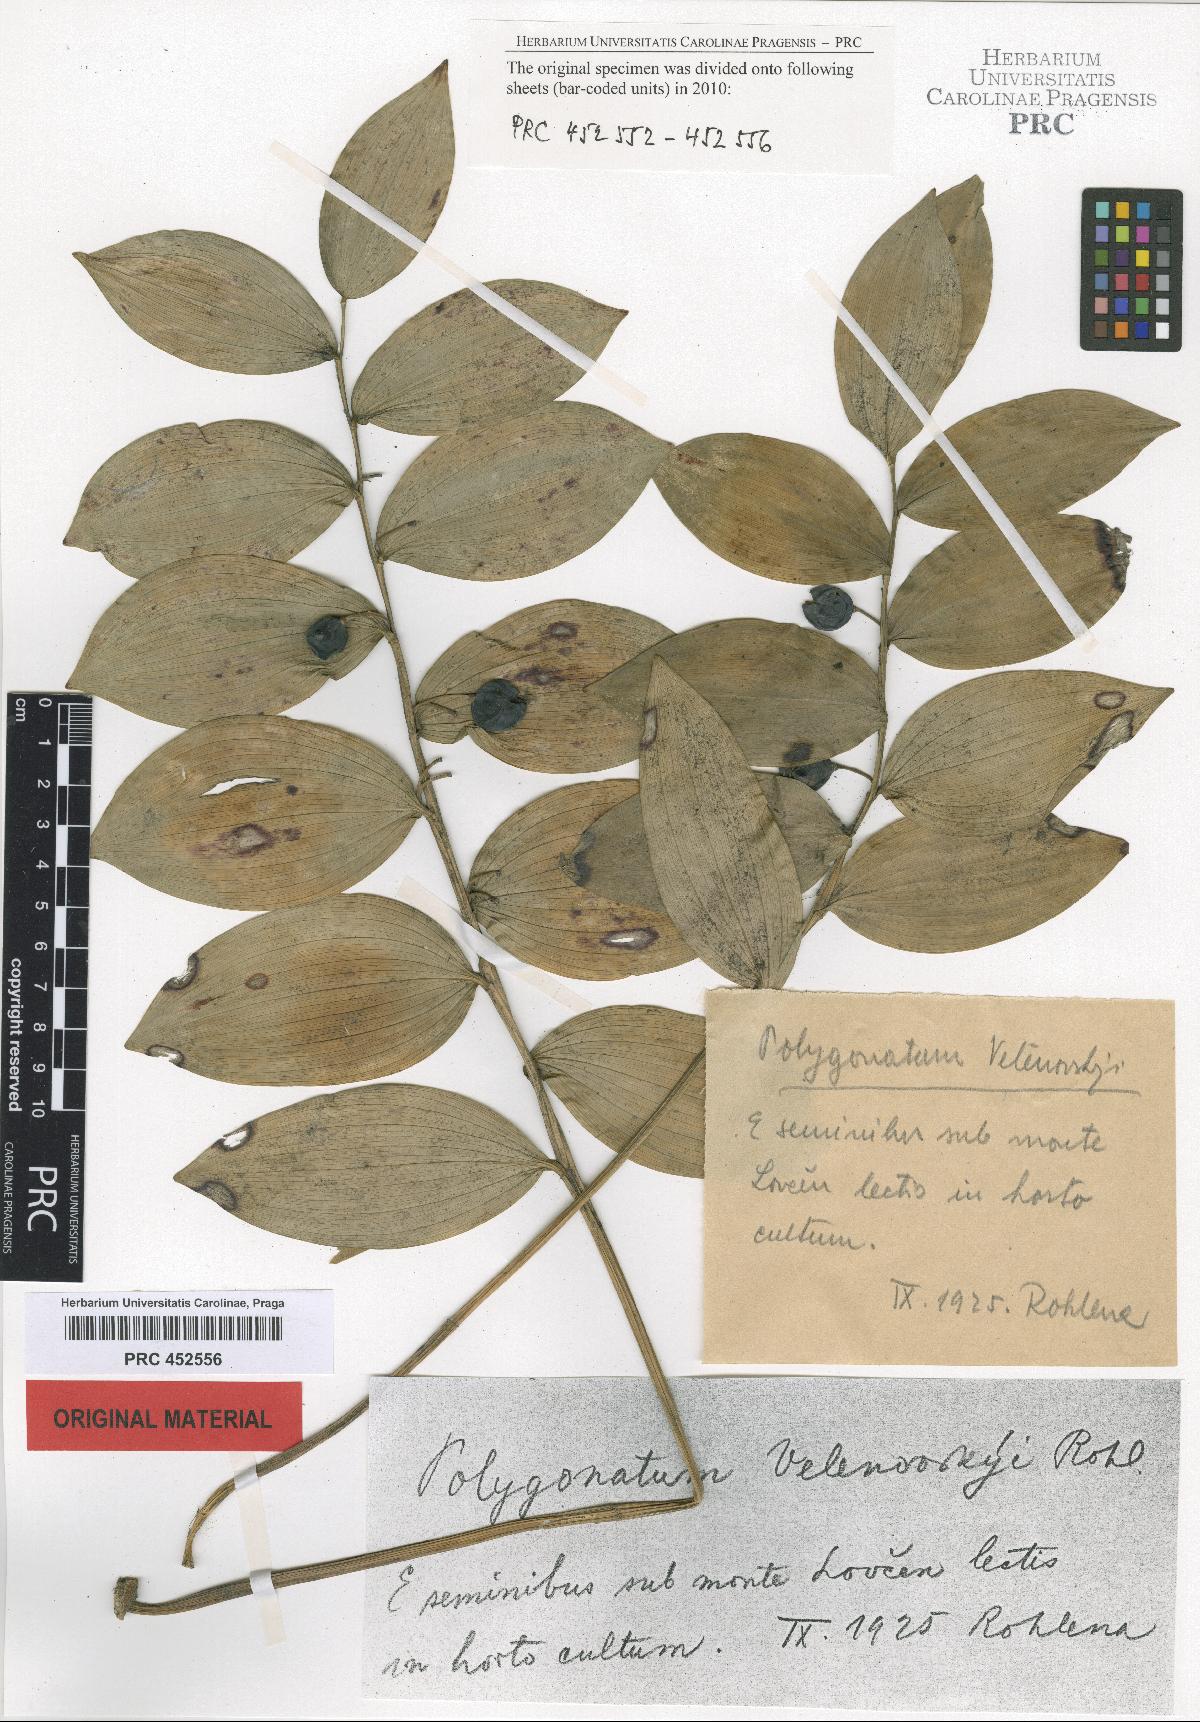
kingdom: Plantae
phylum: Tracheophyta
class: Liliopsida
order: Asparagales
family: Asparagaceae
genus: Polygonatum
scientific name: Polygonatum velenovskyi
